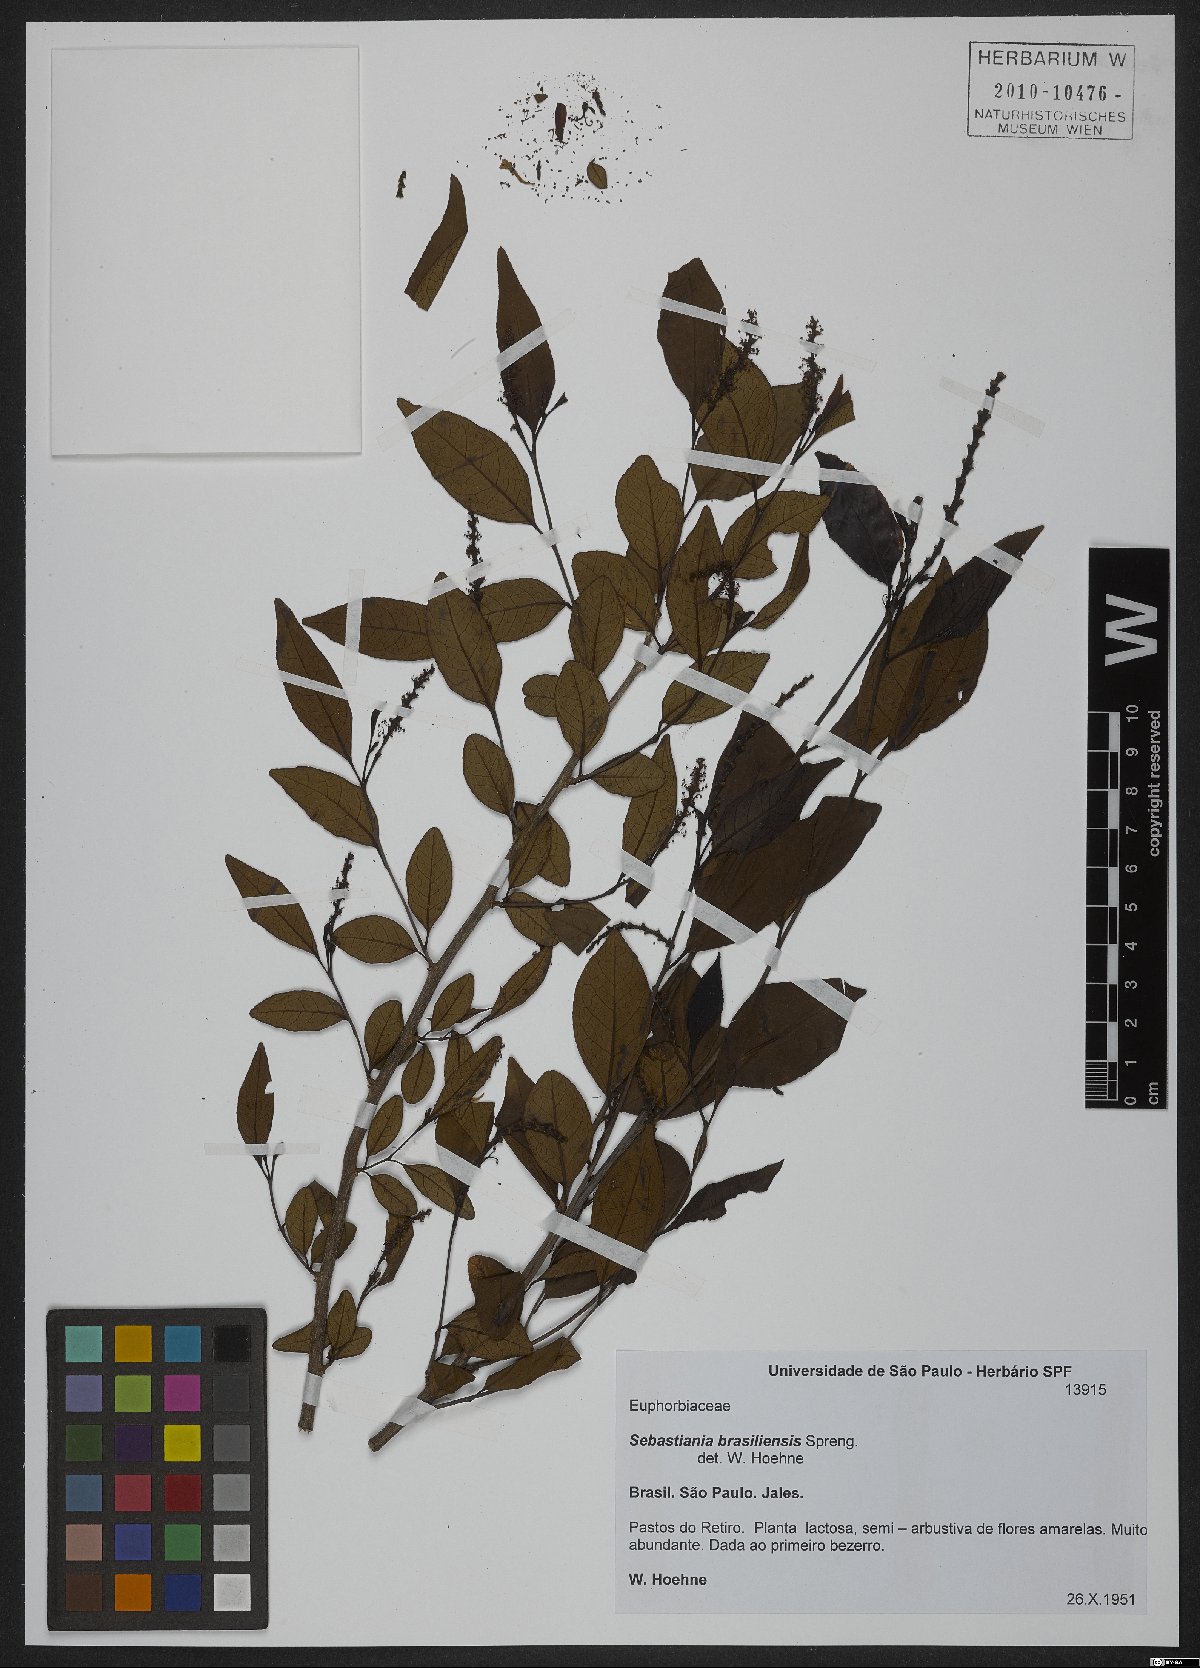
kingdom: Plantae
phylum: Tracheophyta
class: Magnoliopsida
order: Malpighiales
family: Euphorbiaceae
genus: Sebastiania
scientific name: Sebastiania brasiliensis
